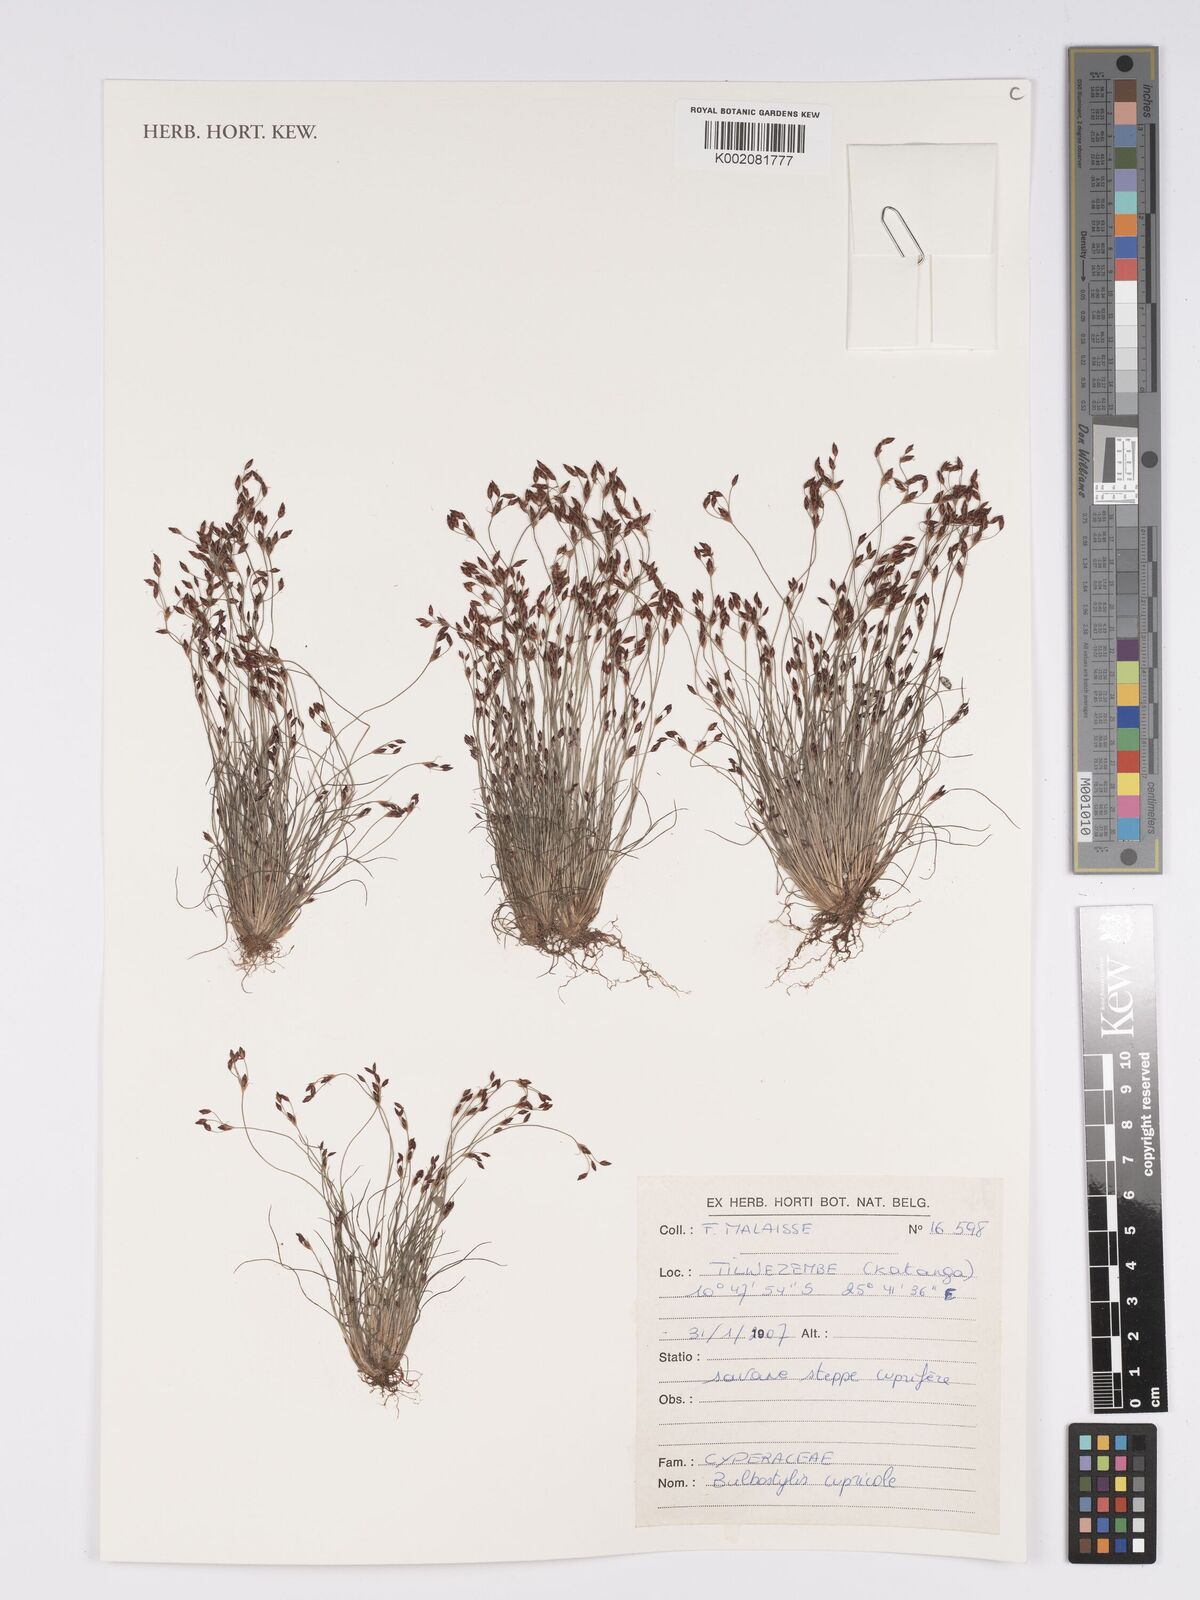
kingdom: Plantae
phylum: Tracheophyta
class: Liliopsida
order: Poales
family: Cyperaceae
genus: Bulbostylis
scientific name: Bulbostylis cupricola
